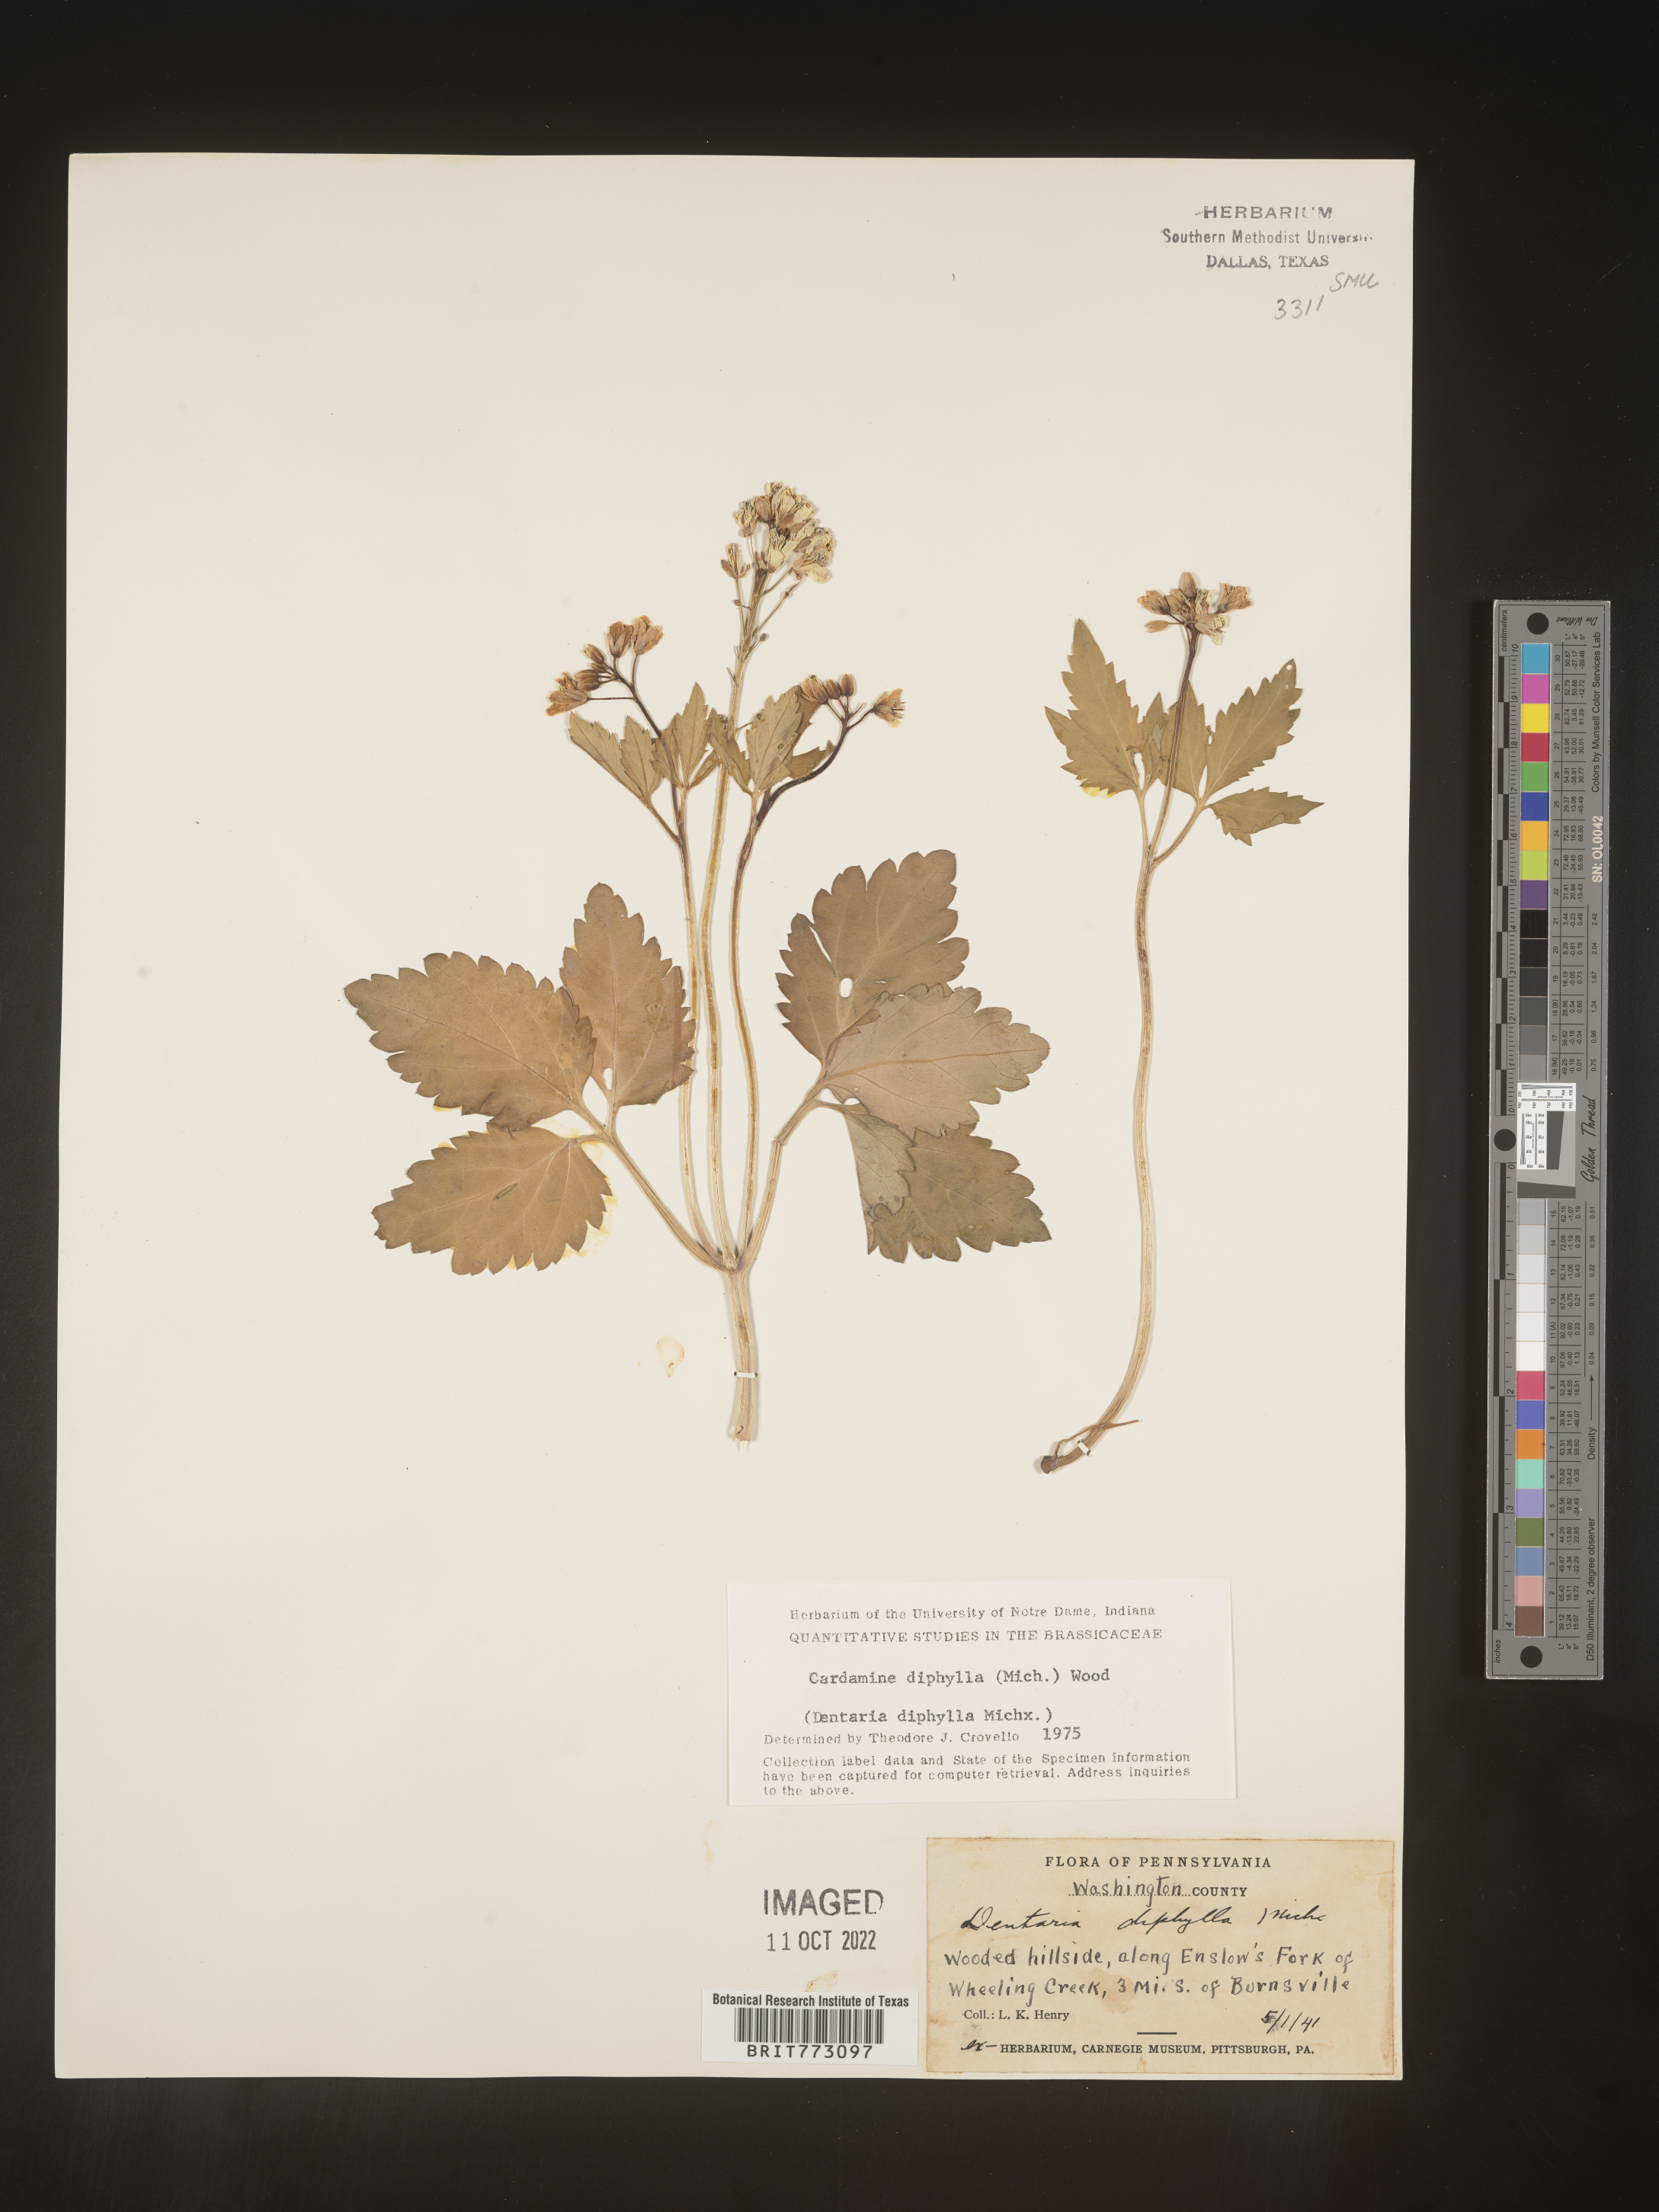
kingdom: Plantae
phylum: Tracheophyta
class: Magnoliopsida
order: Brassicales
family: Brassicaceae
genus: Cardamine
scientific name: Cardamine diphylla
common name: Broad-leaved toothwort
